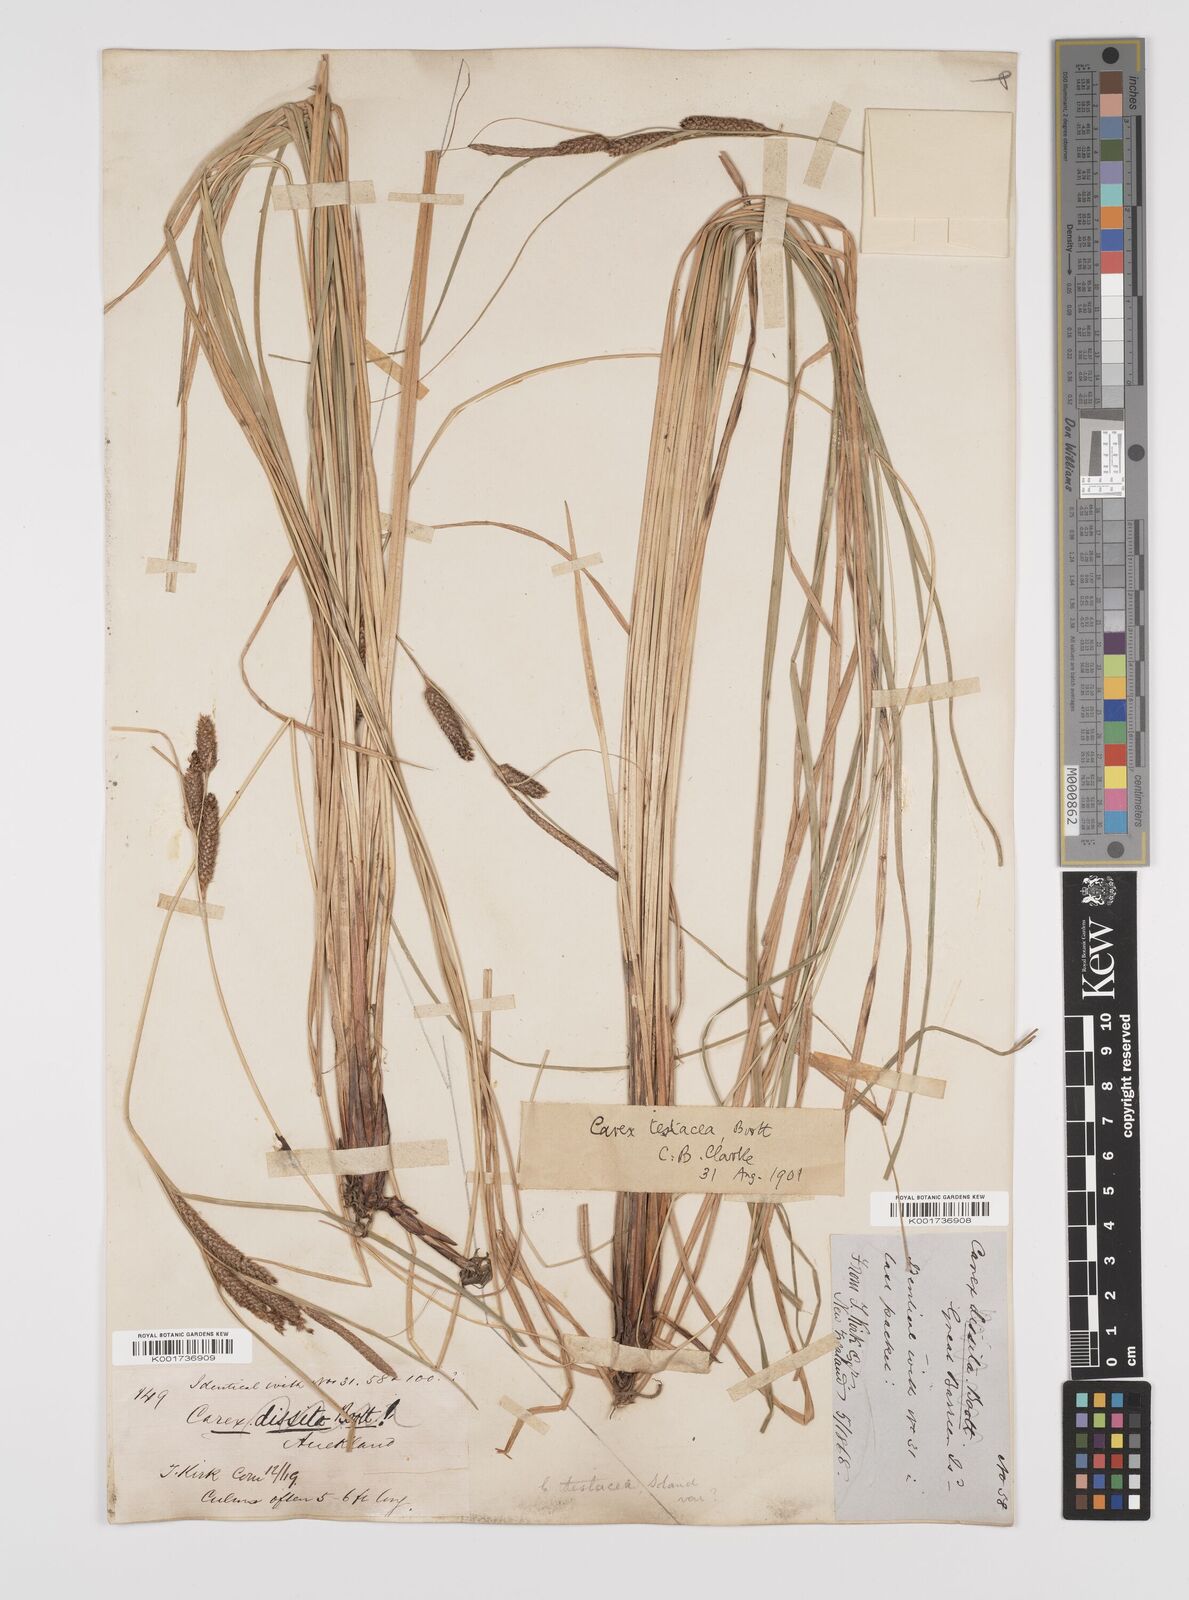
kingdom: Plantae
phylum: Tracheophyta
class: Liliopsida
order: Poales
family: Cyperaceae
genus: Carex
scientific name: Carex testacea
